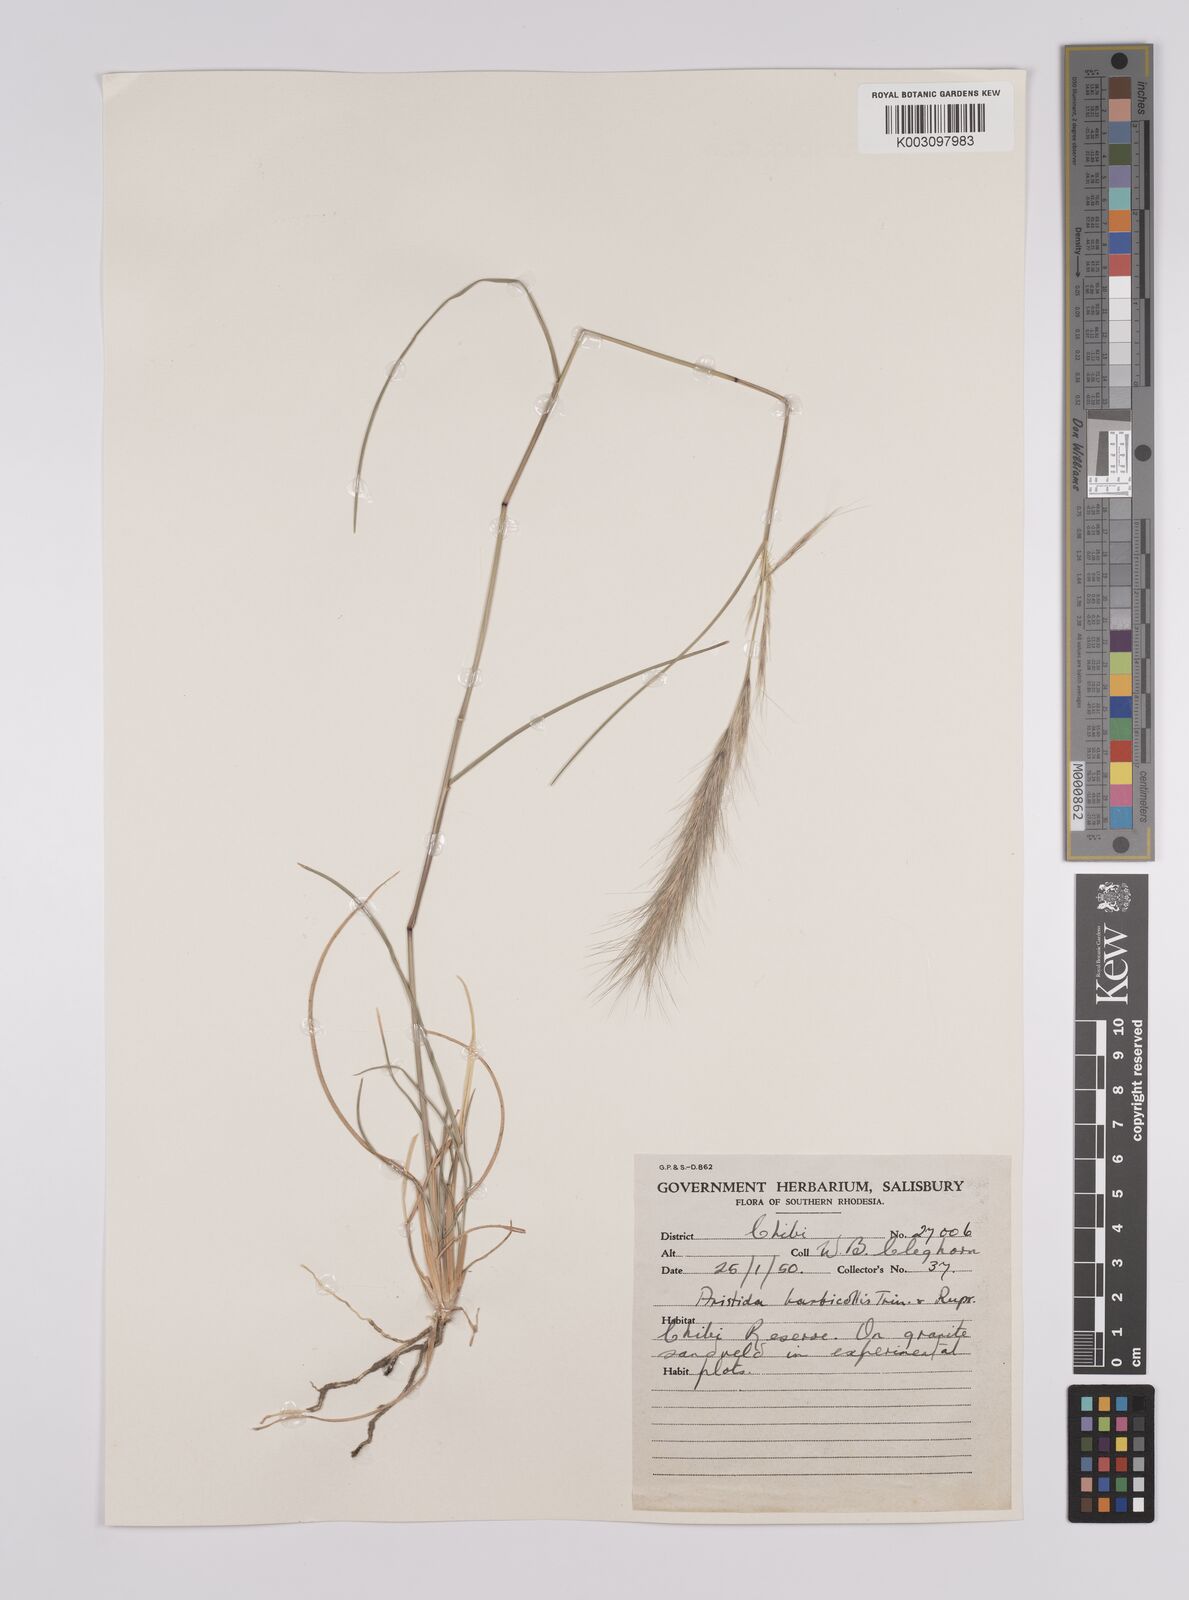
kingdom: Plantae
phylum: Tracheophyta
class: Liliopsida
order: Poales
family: Poaceae
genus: Aristida
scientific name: Aristida congesta
